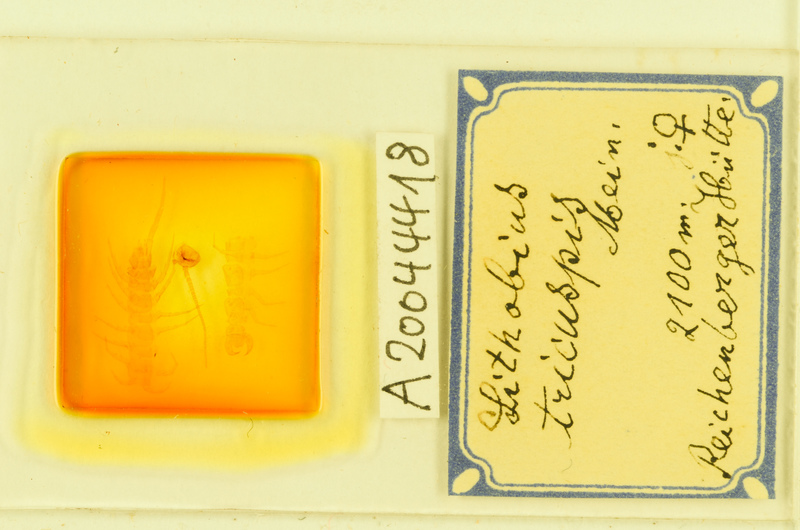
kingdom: Animalia
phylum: Arthropoda
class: Chilopoda
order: Lithobiomorpha
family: Lithobiidae
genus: Lithobius
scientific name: Lithobius tricuspis
